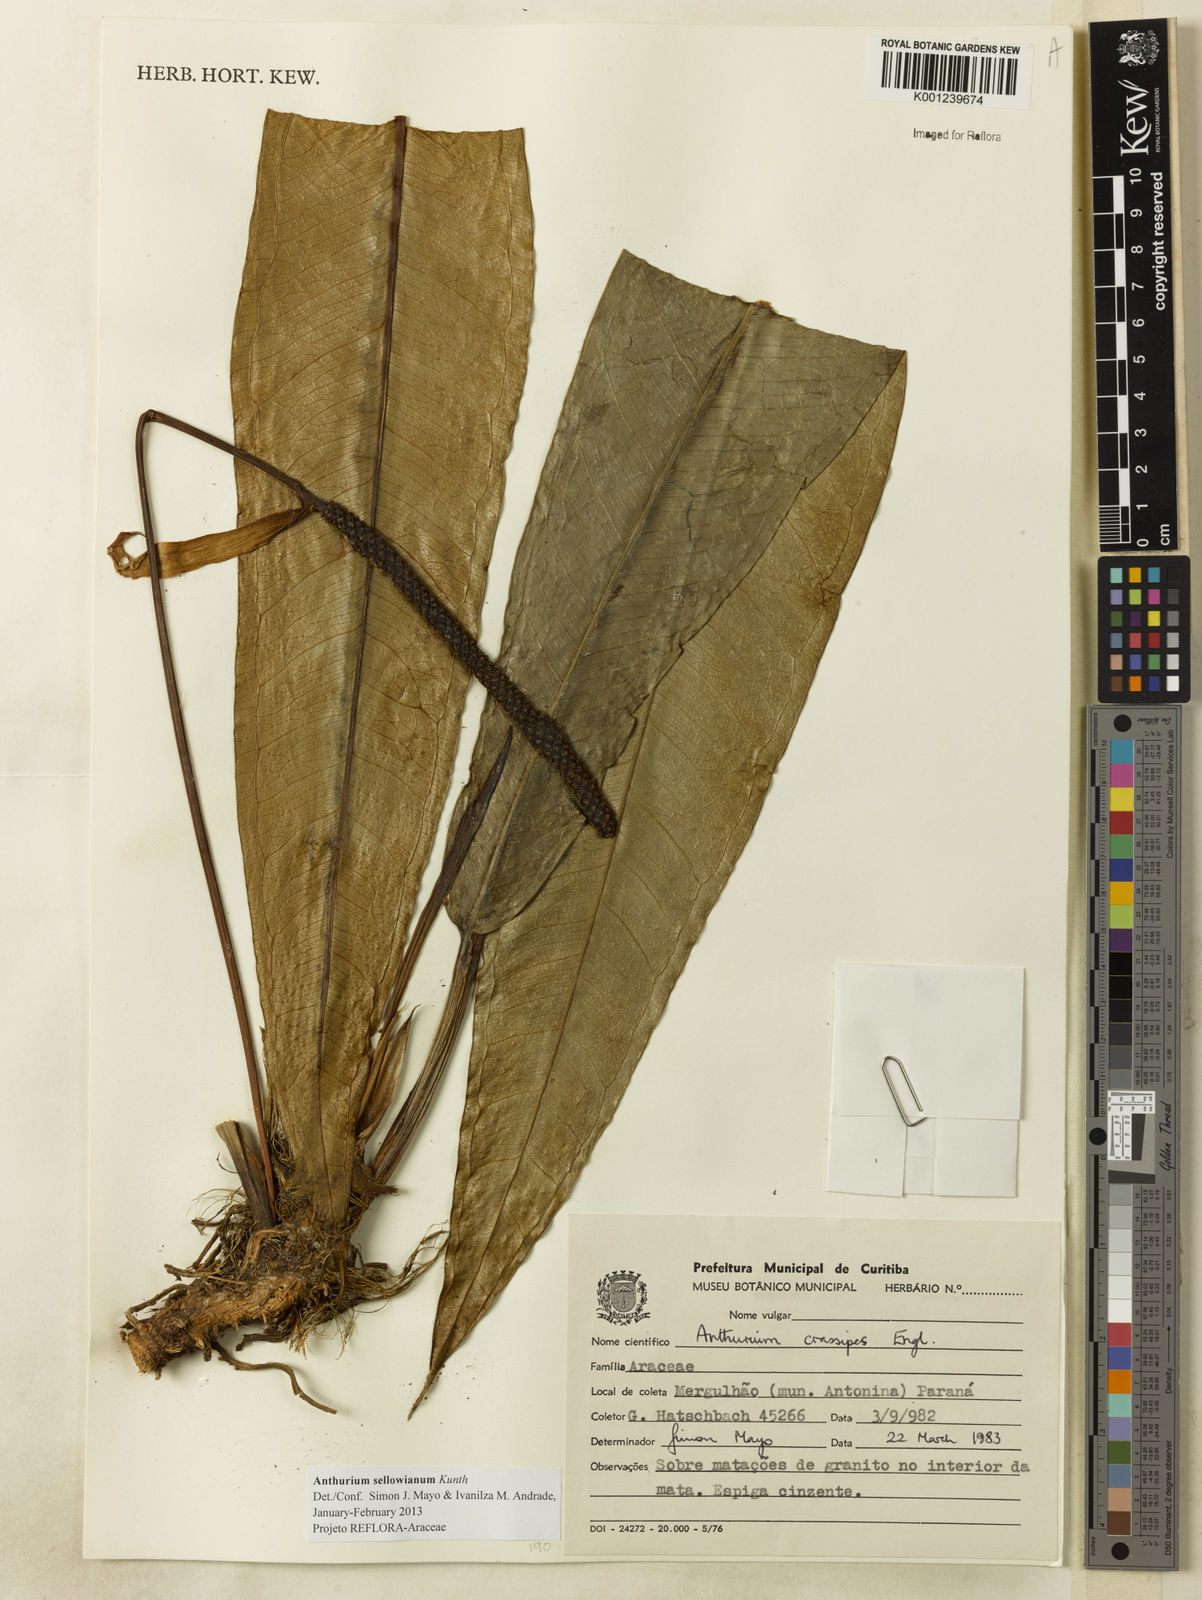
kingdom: Plantae
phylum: Tracheophyta
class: Liliopsida
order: Alismatales
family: Araceae
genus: Anthurium
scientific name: Anthurium sellowianum
